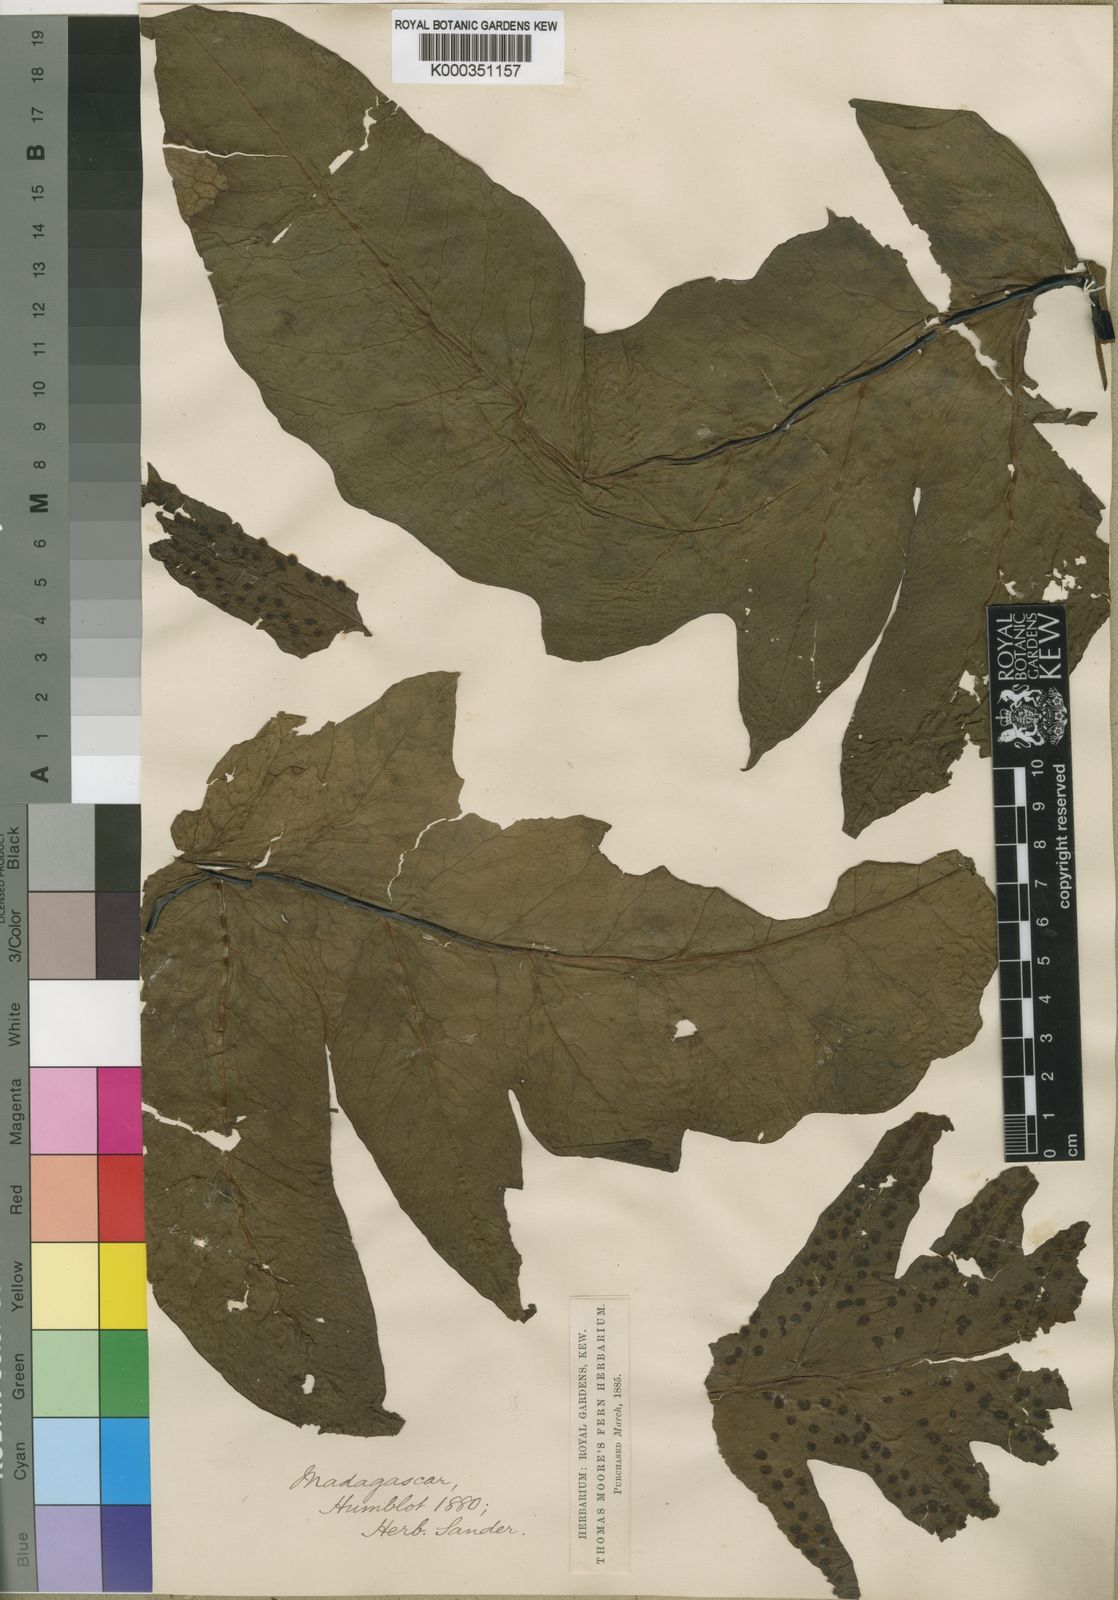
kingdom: Plantae
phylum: Tracheophyta
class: Polypodiopsida
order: Polypodiales
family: Tectariaceae
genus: Tectaria
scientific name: Tectaria lawrenceana
